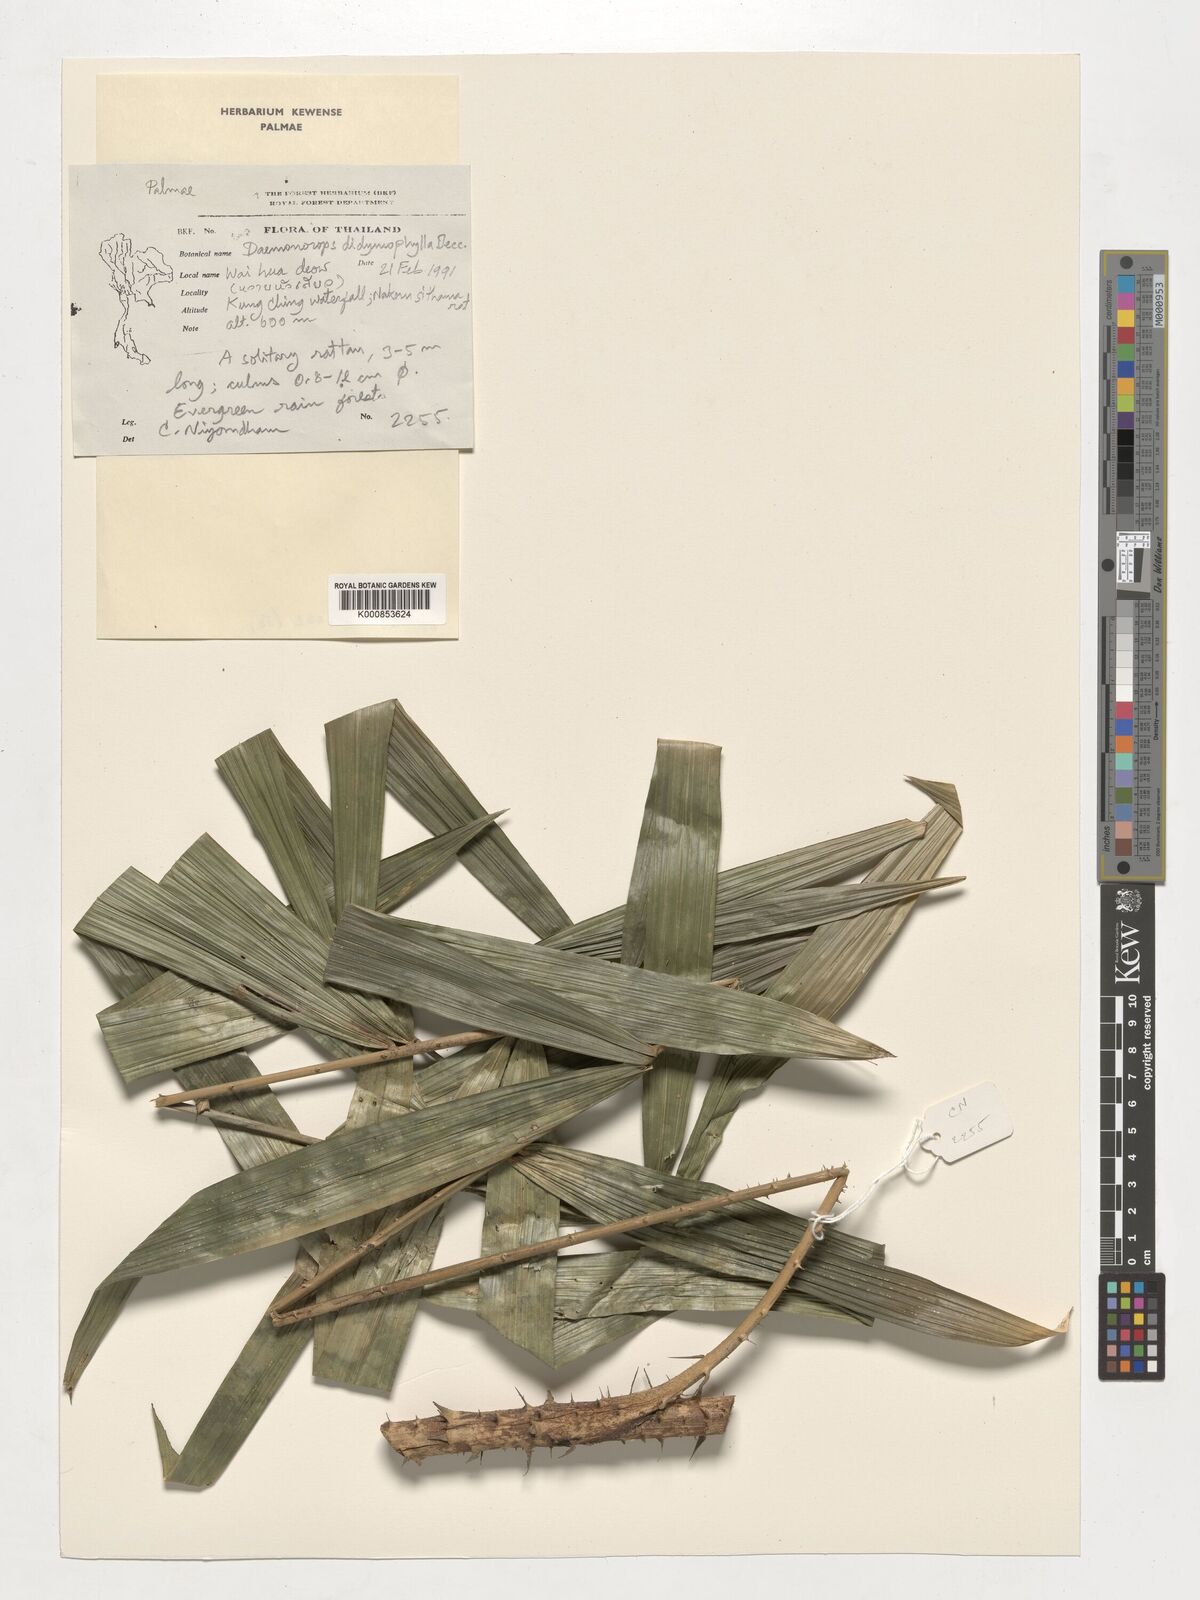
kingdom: Plantae
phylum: Tracheophyta
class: Liliopsida
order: Arecales
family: Arecaceae
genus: Calamus
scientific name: Calamus gracilipes
